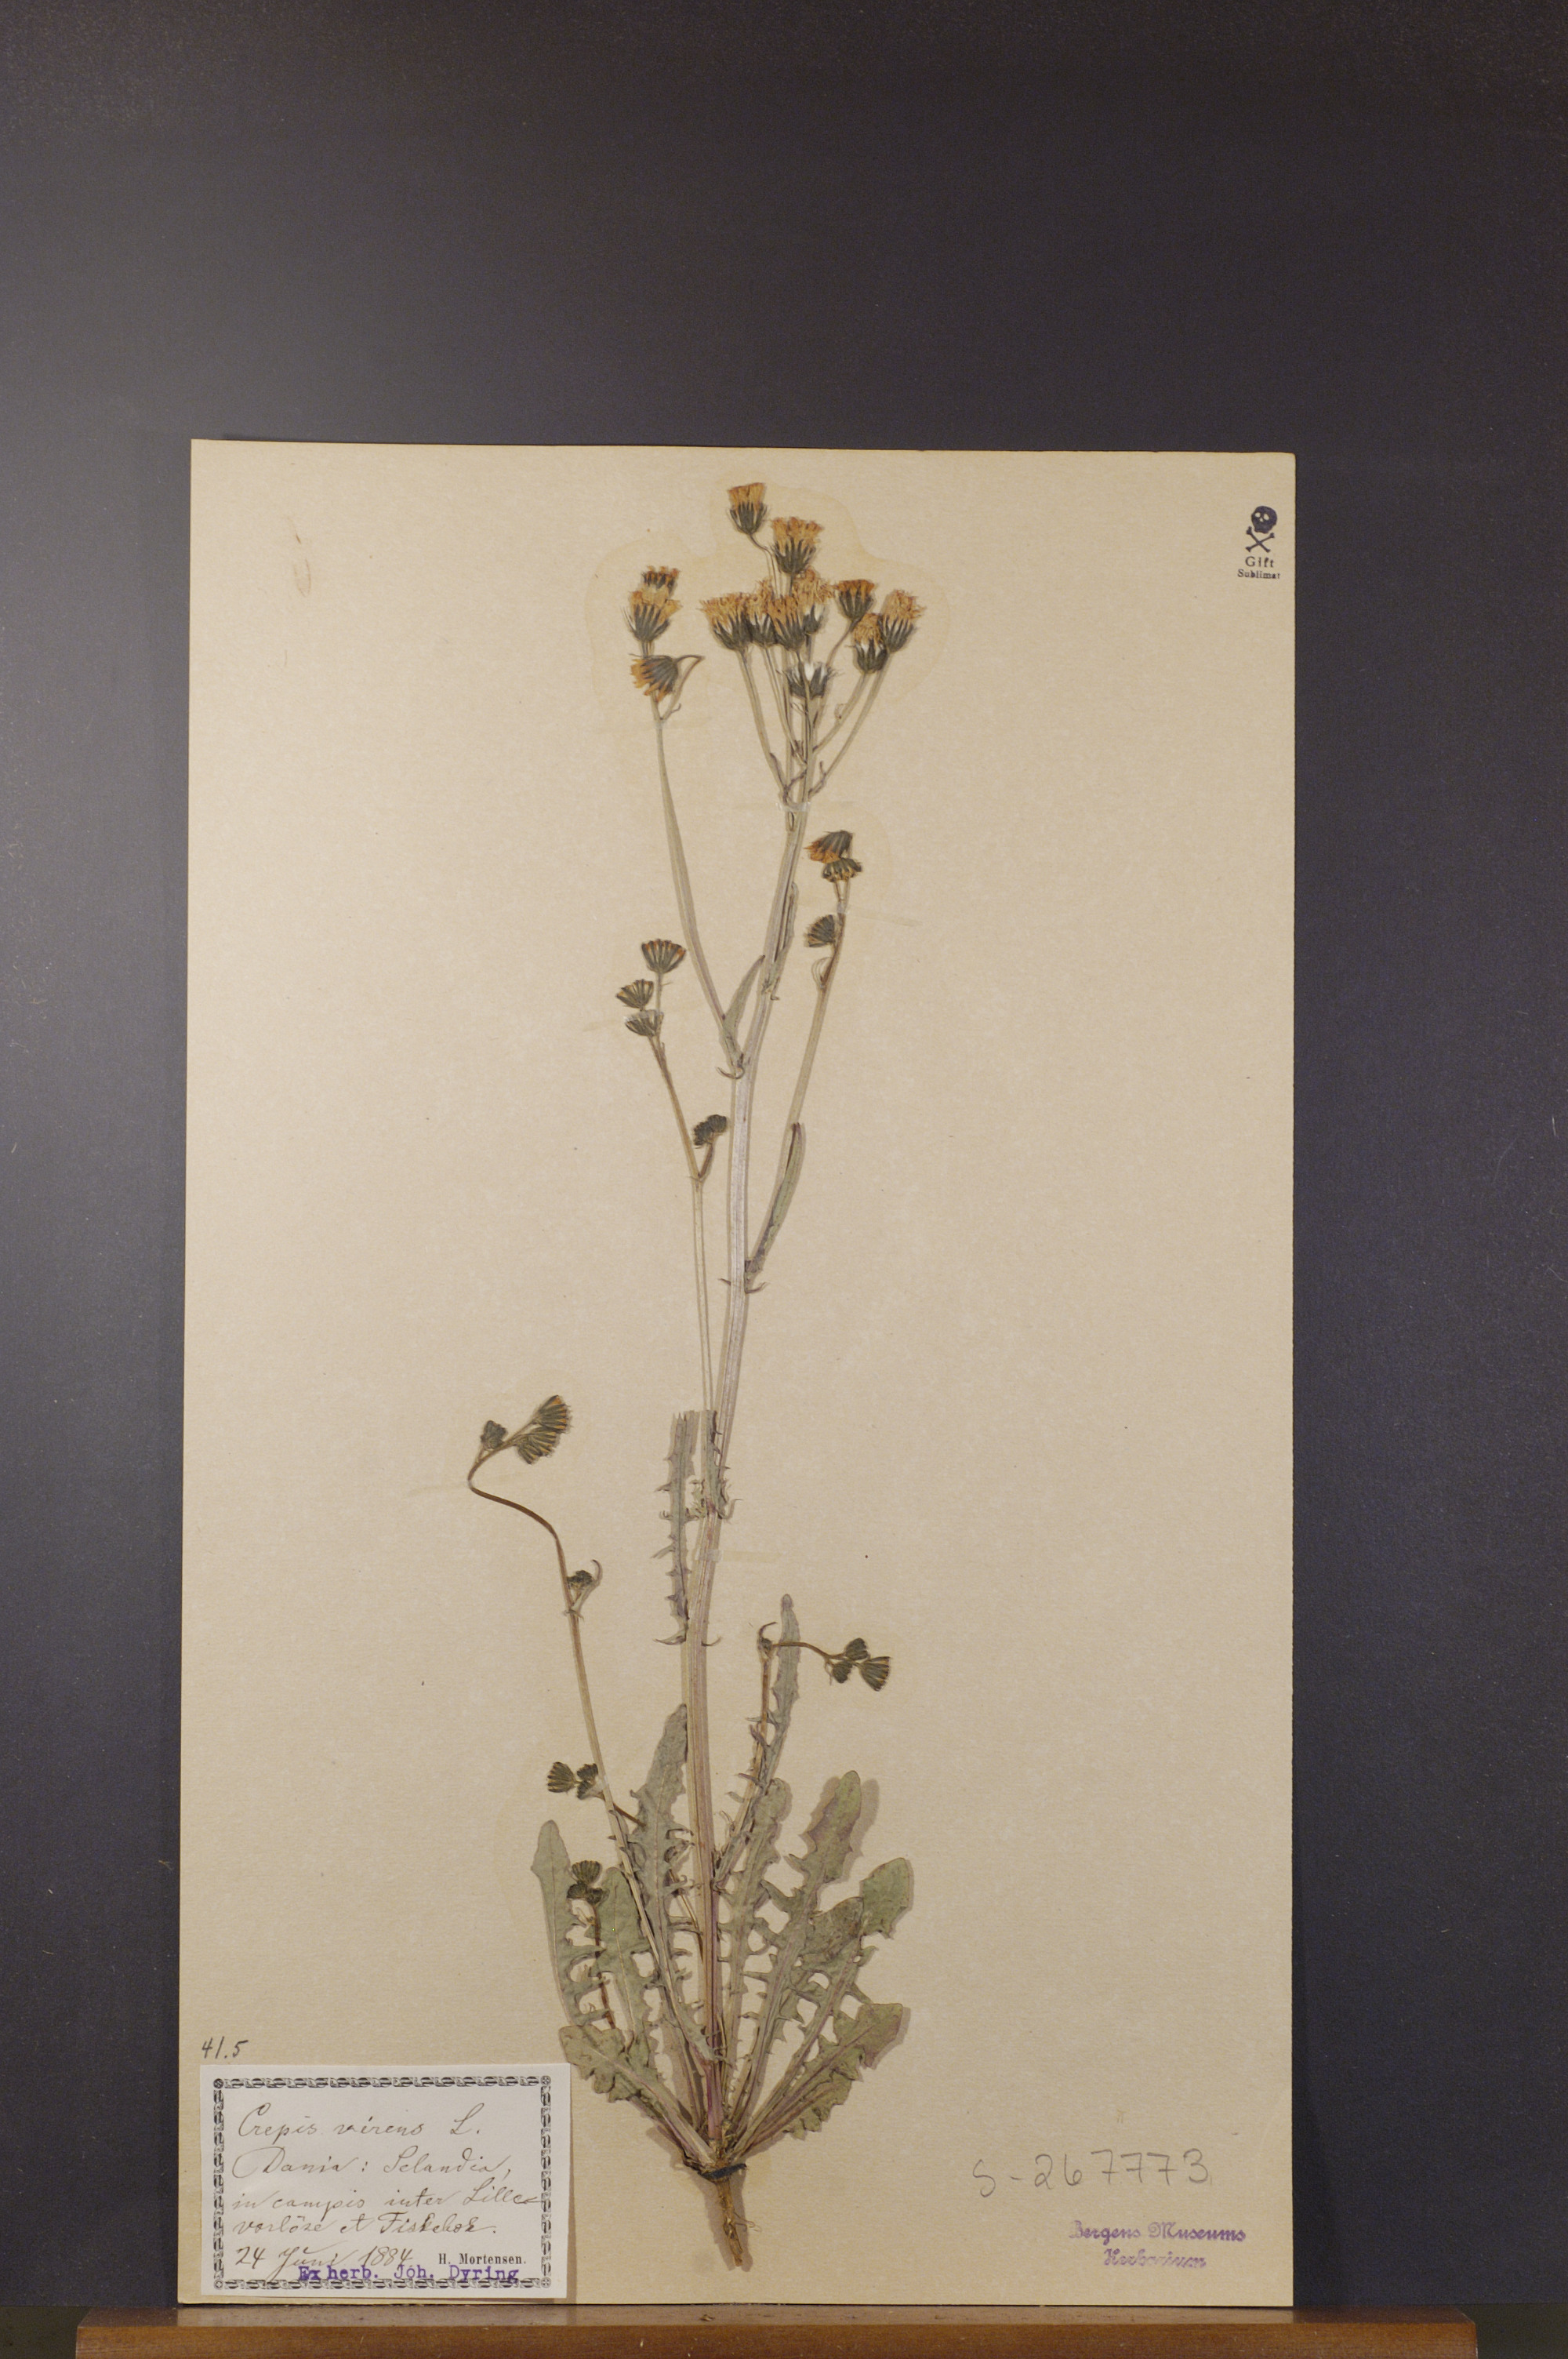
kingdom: Plantae
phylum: Tracheophyta
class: Magnoliopsida
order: Asterales
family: Asteraceae
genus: Crepis
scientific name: Crepis capillaris
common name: Smooth hawksbeard
